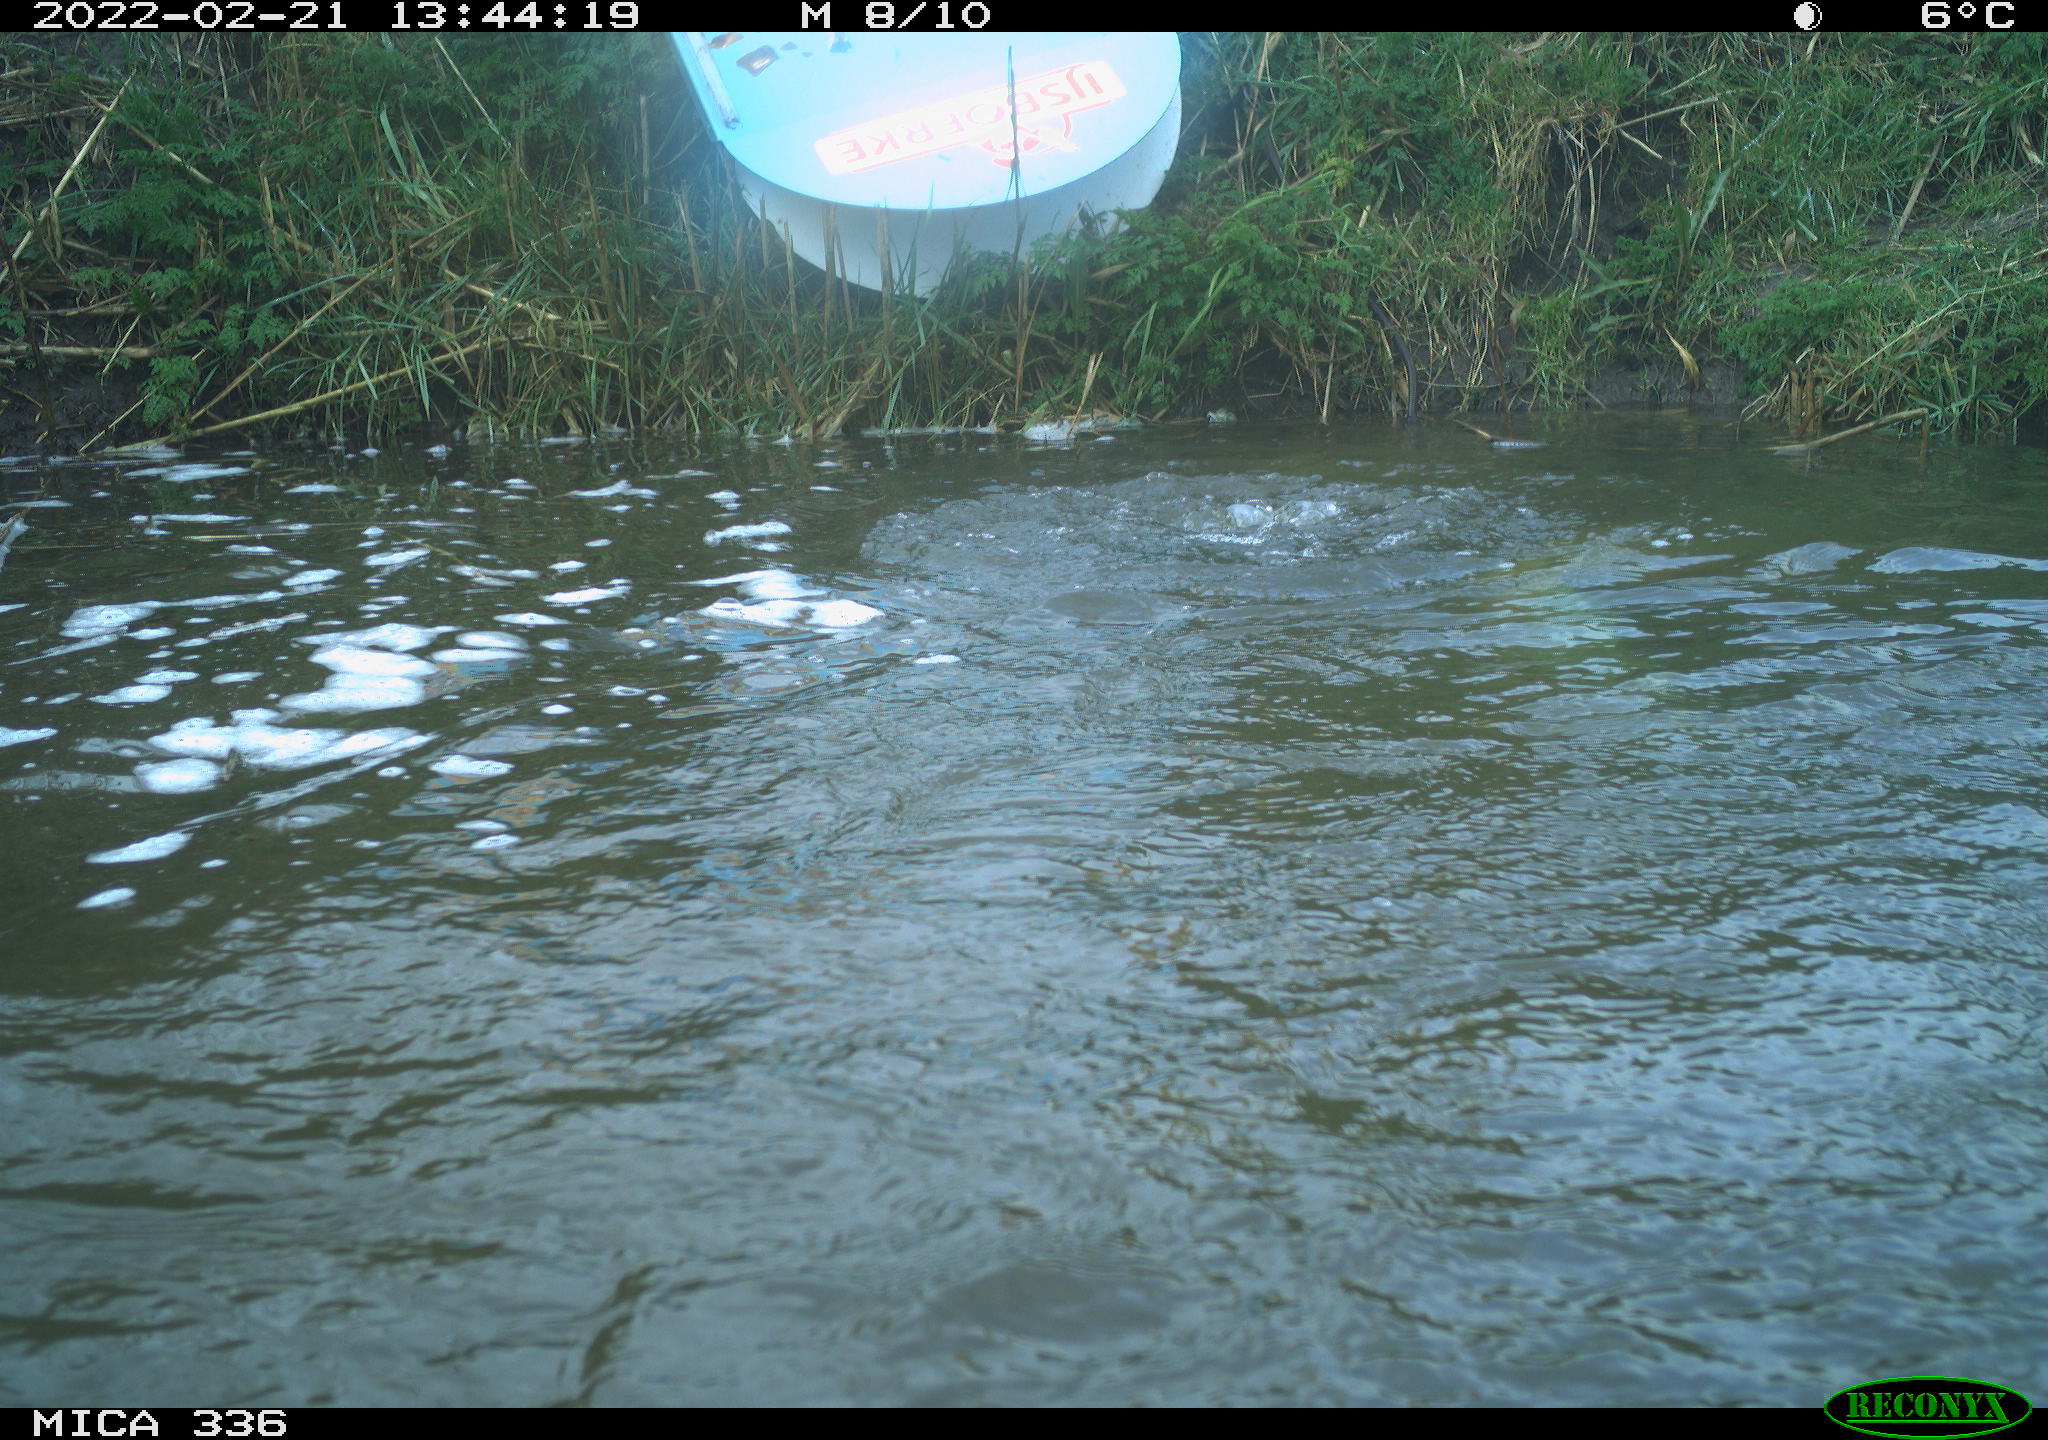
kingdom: Animalia
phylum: Chordata
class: Aves
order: Suliformes
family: Phalacrocoracidae
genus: Phalacrocorax
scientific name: Phalacrocorax carbo
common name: Great cormorant
